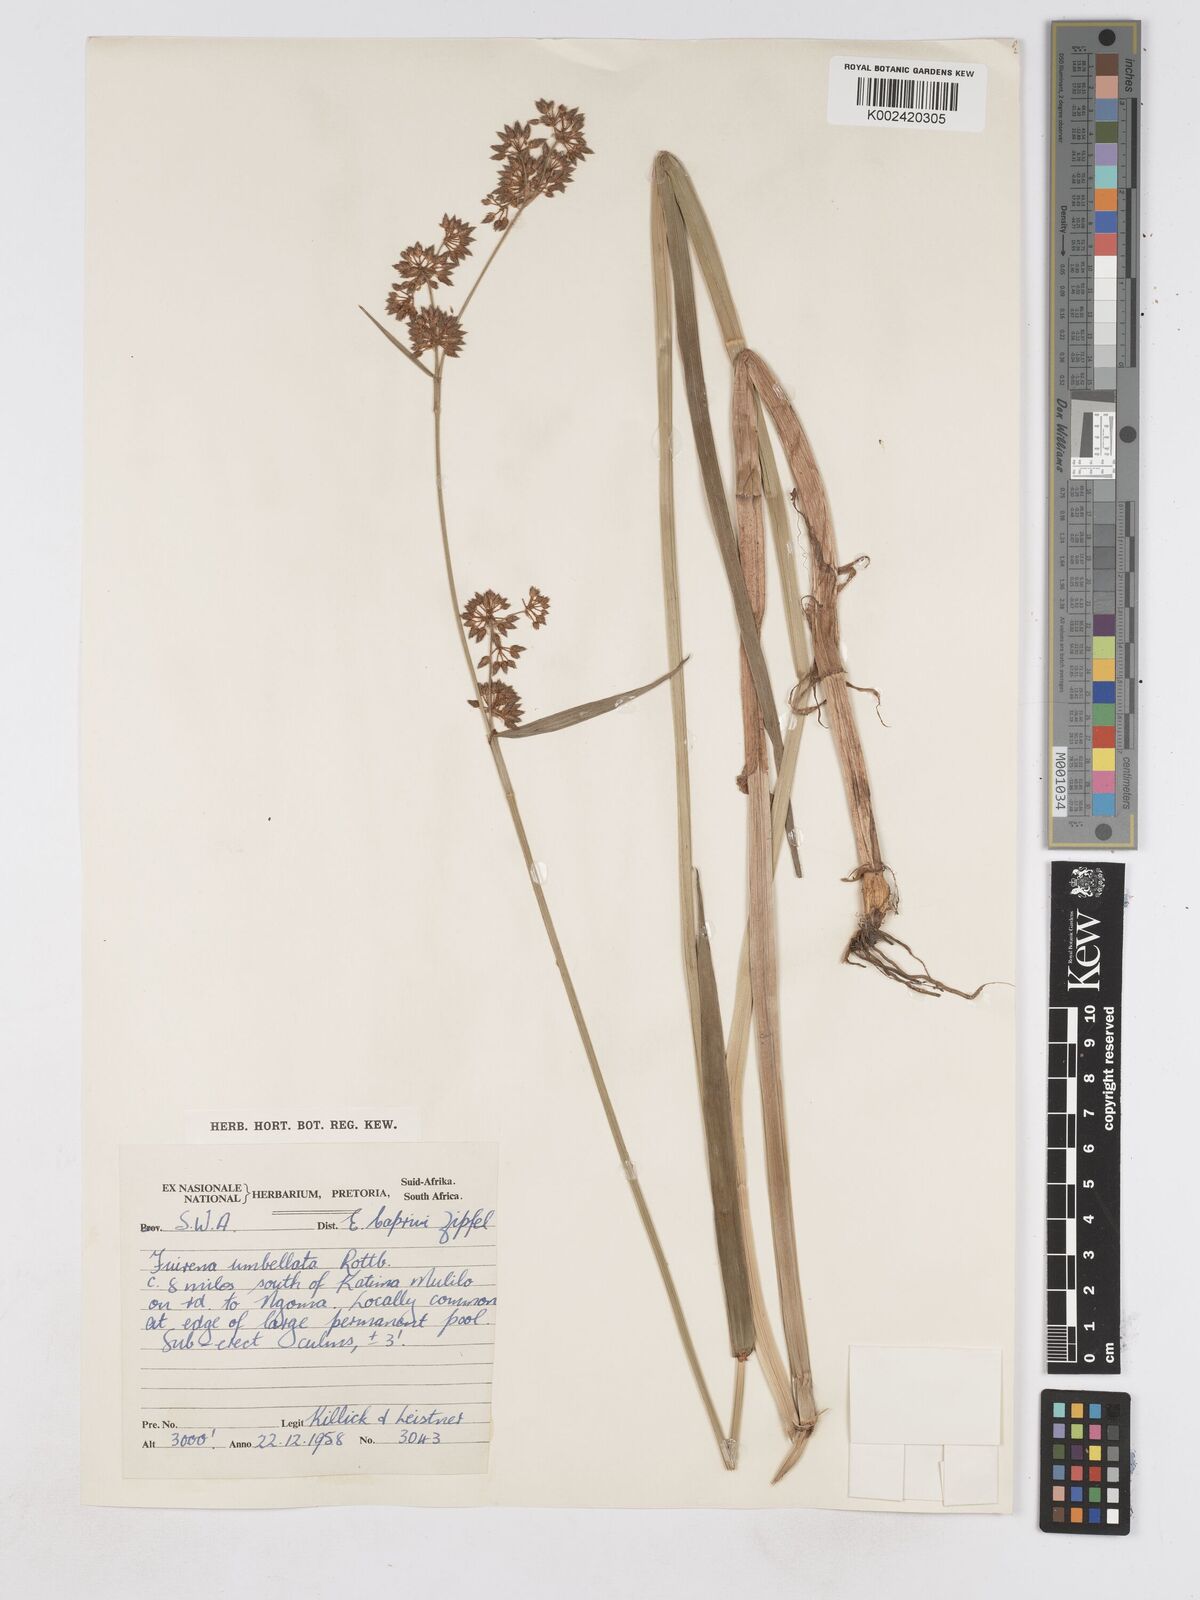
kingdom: Plantae
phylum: Tracheophyta
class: Liliopsida
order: Poales
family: Cyperaceae
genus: Fuirena
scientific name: Fuirena umbellata
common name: Yefen
